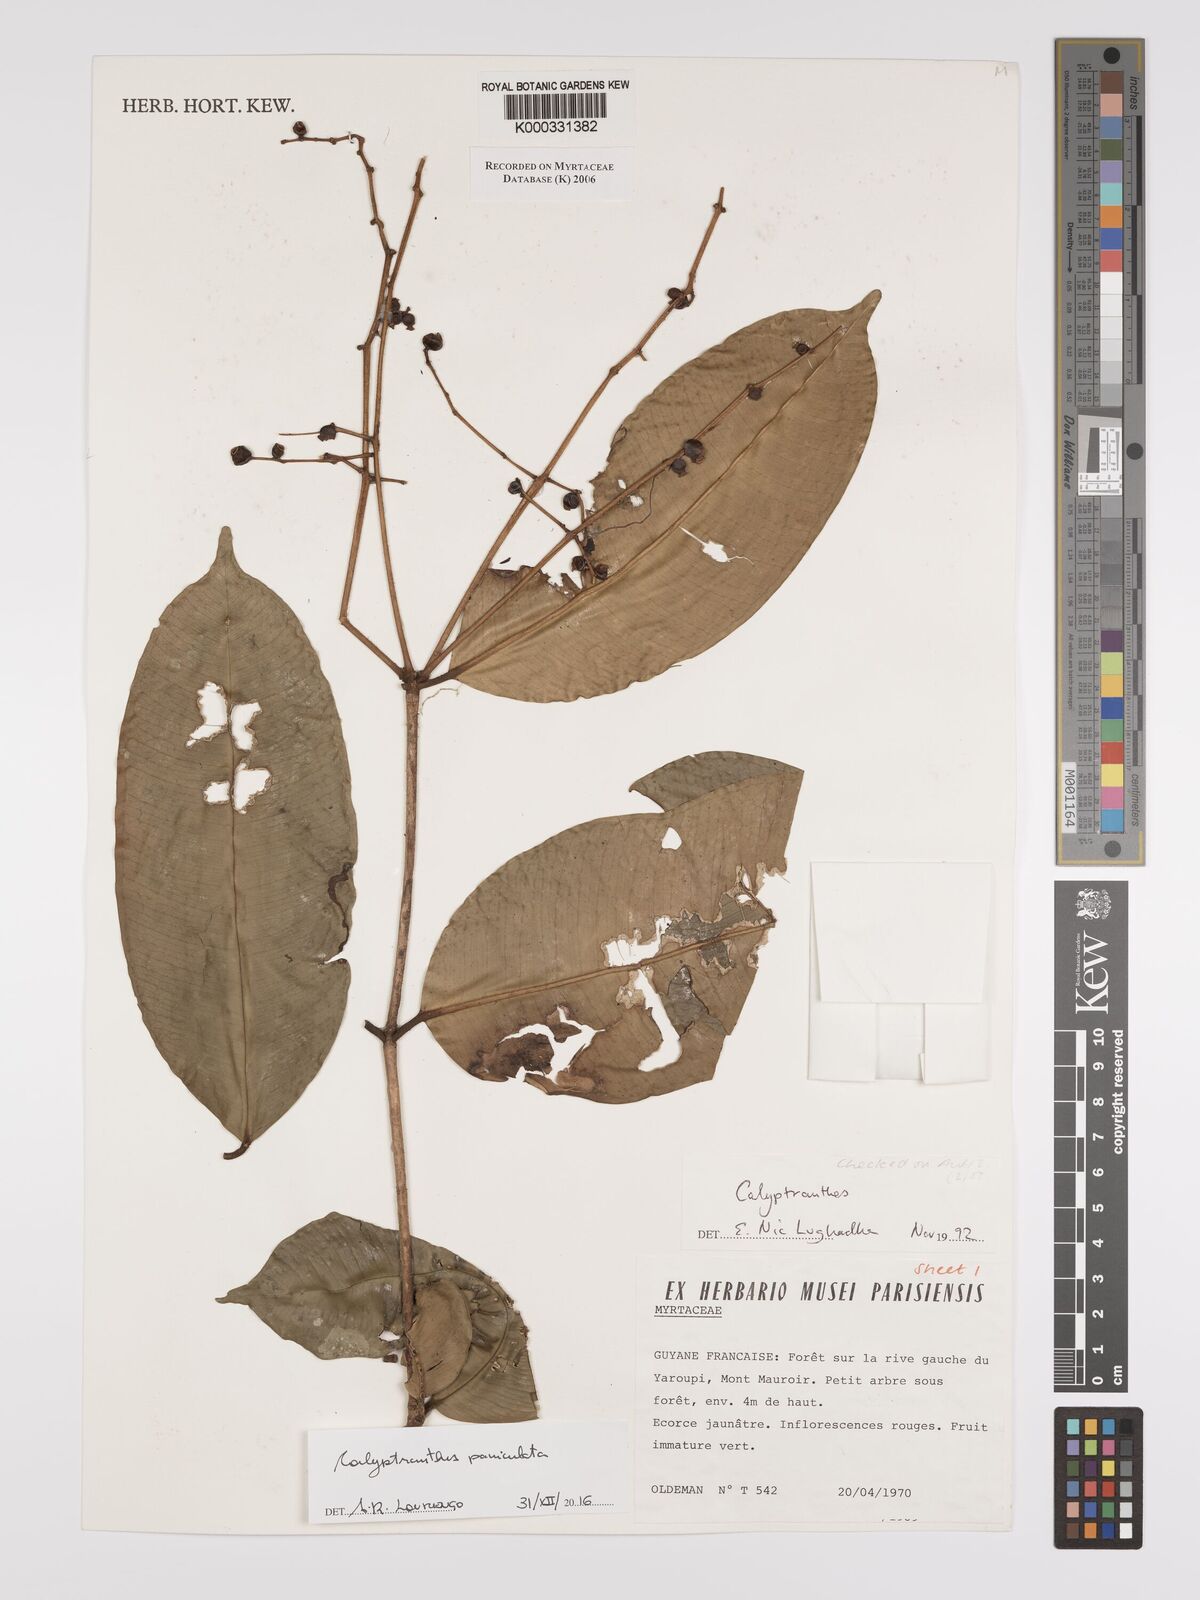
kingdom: Plantae
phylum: Tracheophyta
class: Magnoliopsida
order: Myrtales
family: Myrtaceae
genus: Calyptranthes
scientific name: Calyptranthes
